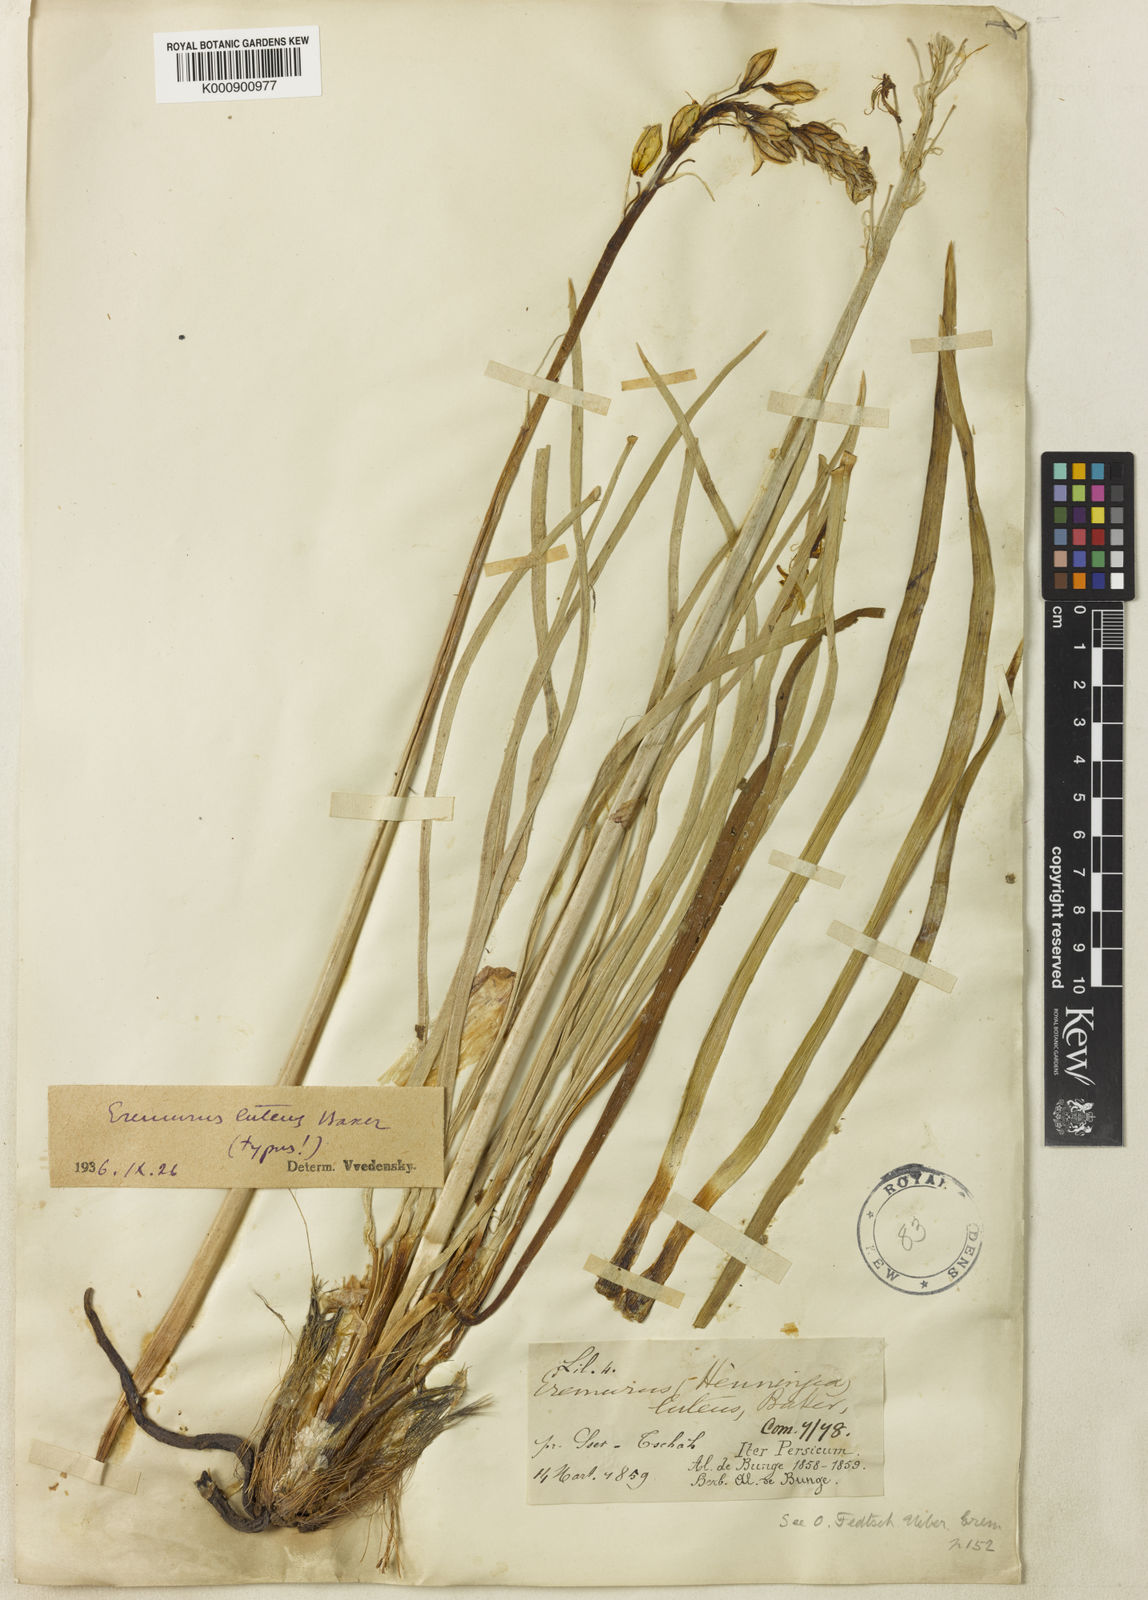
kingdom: Plantae
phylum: Tracheophyta
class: Liliopsida
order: Asparagales
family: Asphodelaceae
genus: Eremurus
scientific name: Eremurus luteus
